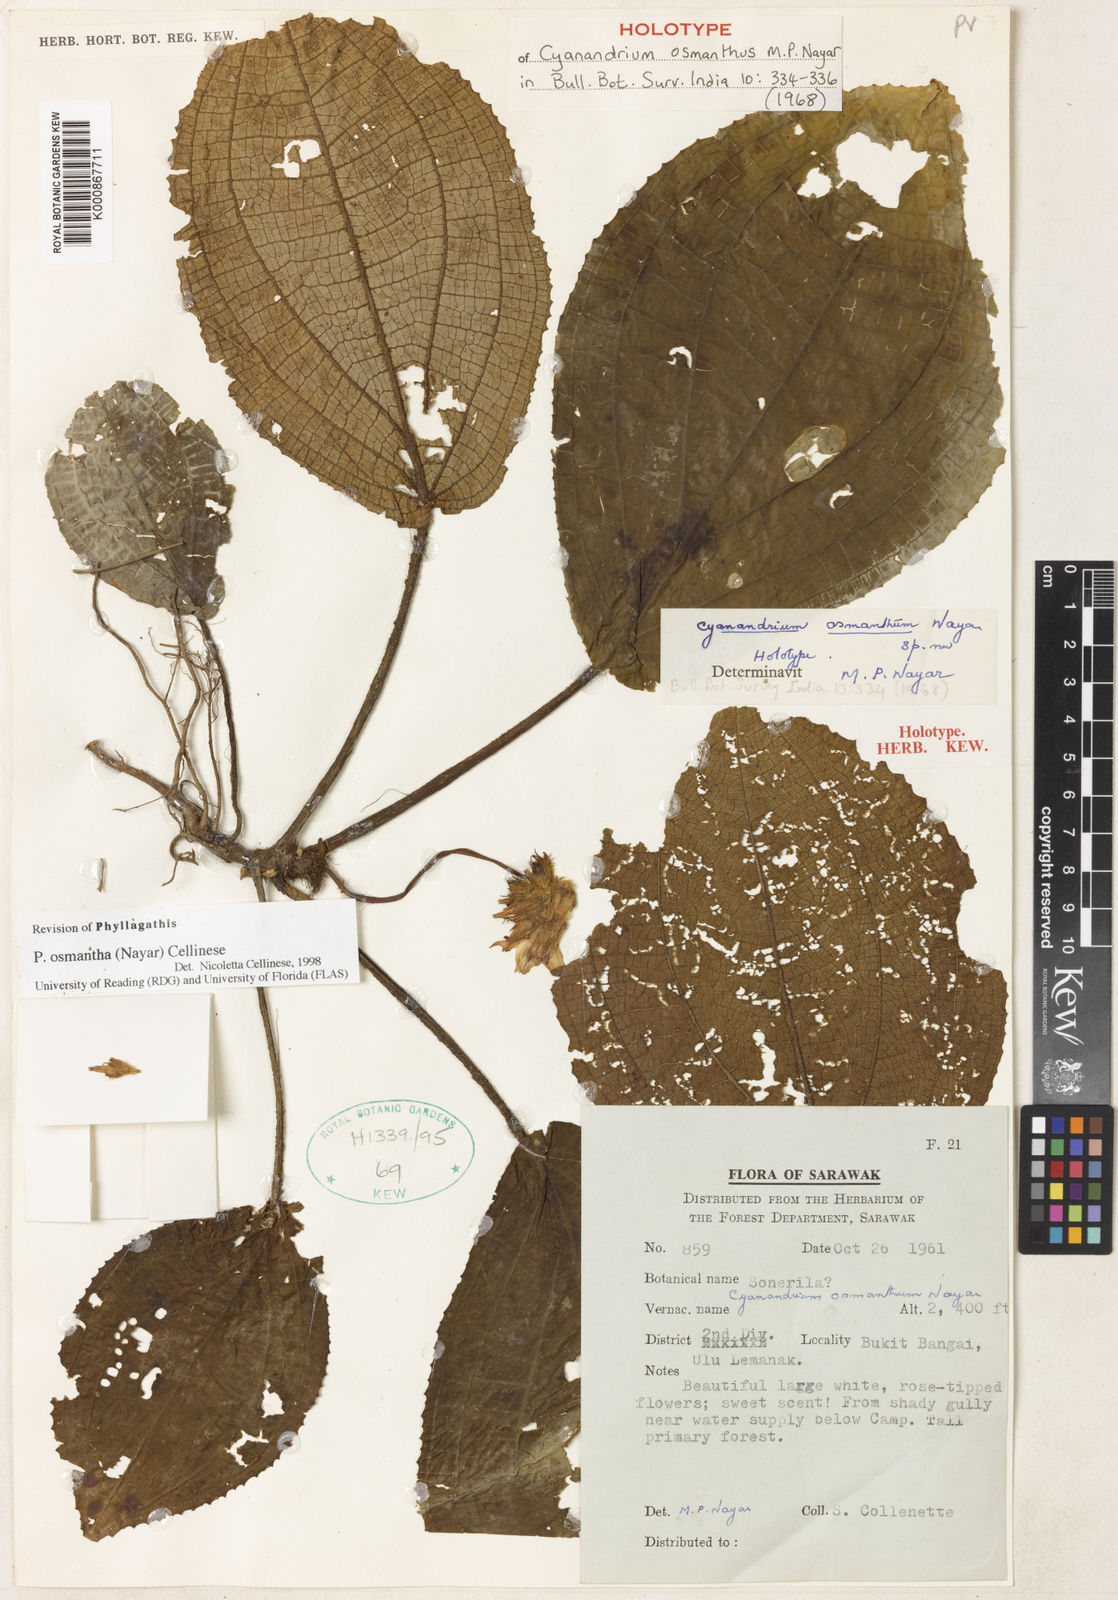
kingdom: Plantae
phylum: Tracheophyta
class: Magnoliopsida
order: Myrtales
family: Melastomataceae
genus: Cyanandrium
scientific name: Cyanandrium osmanthum
